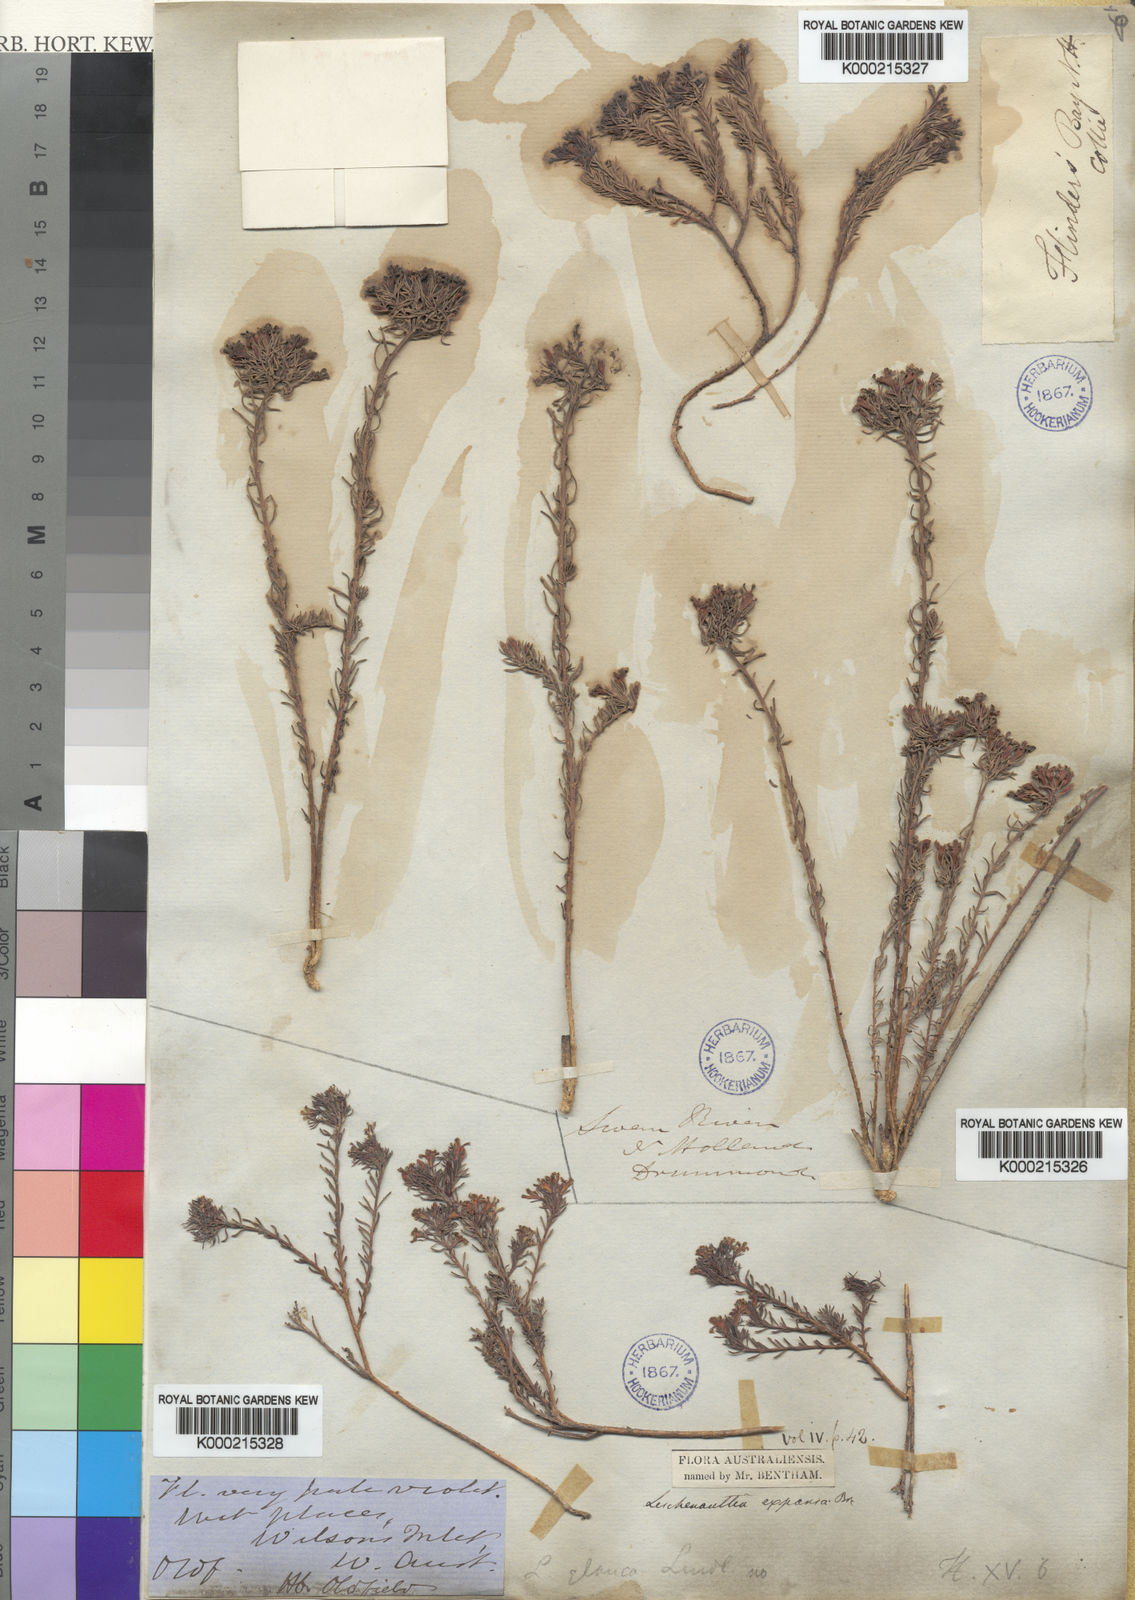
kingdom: Plantae
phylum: Tracheophyta
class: Magnoliopsida
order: Asterales
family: Goodeniaceae
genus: Leschenaultia
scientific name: Leschenaultia expansa
